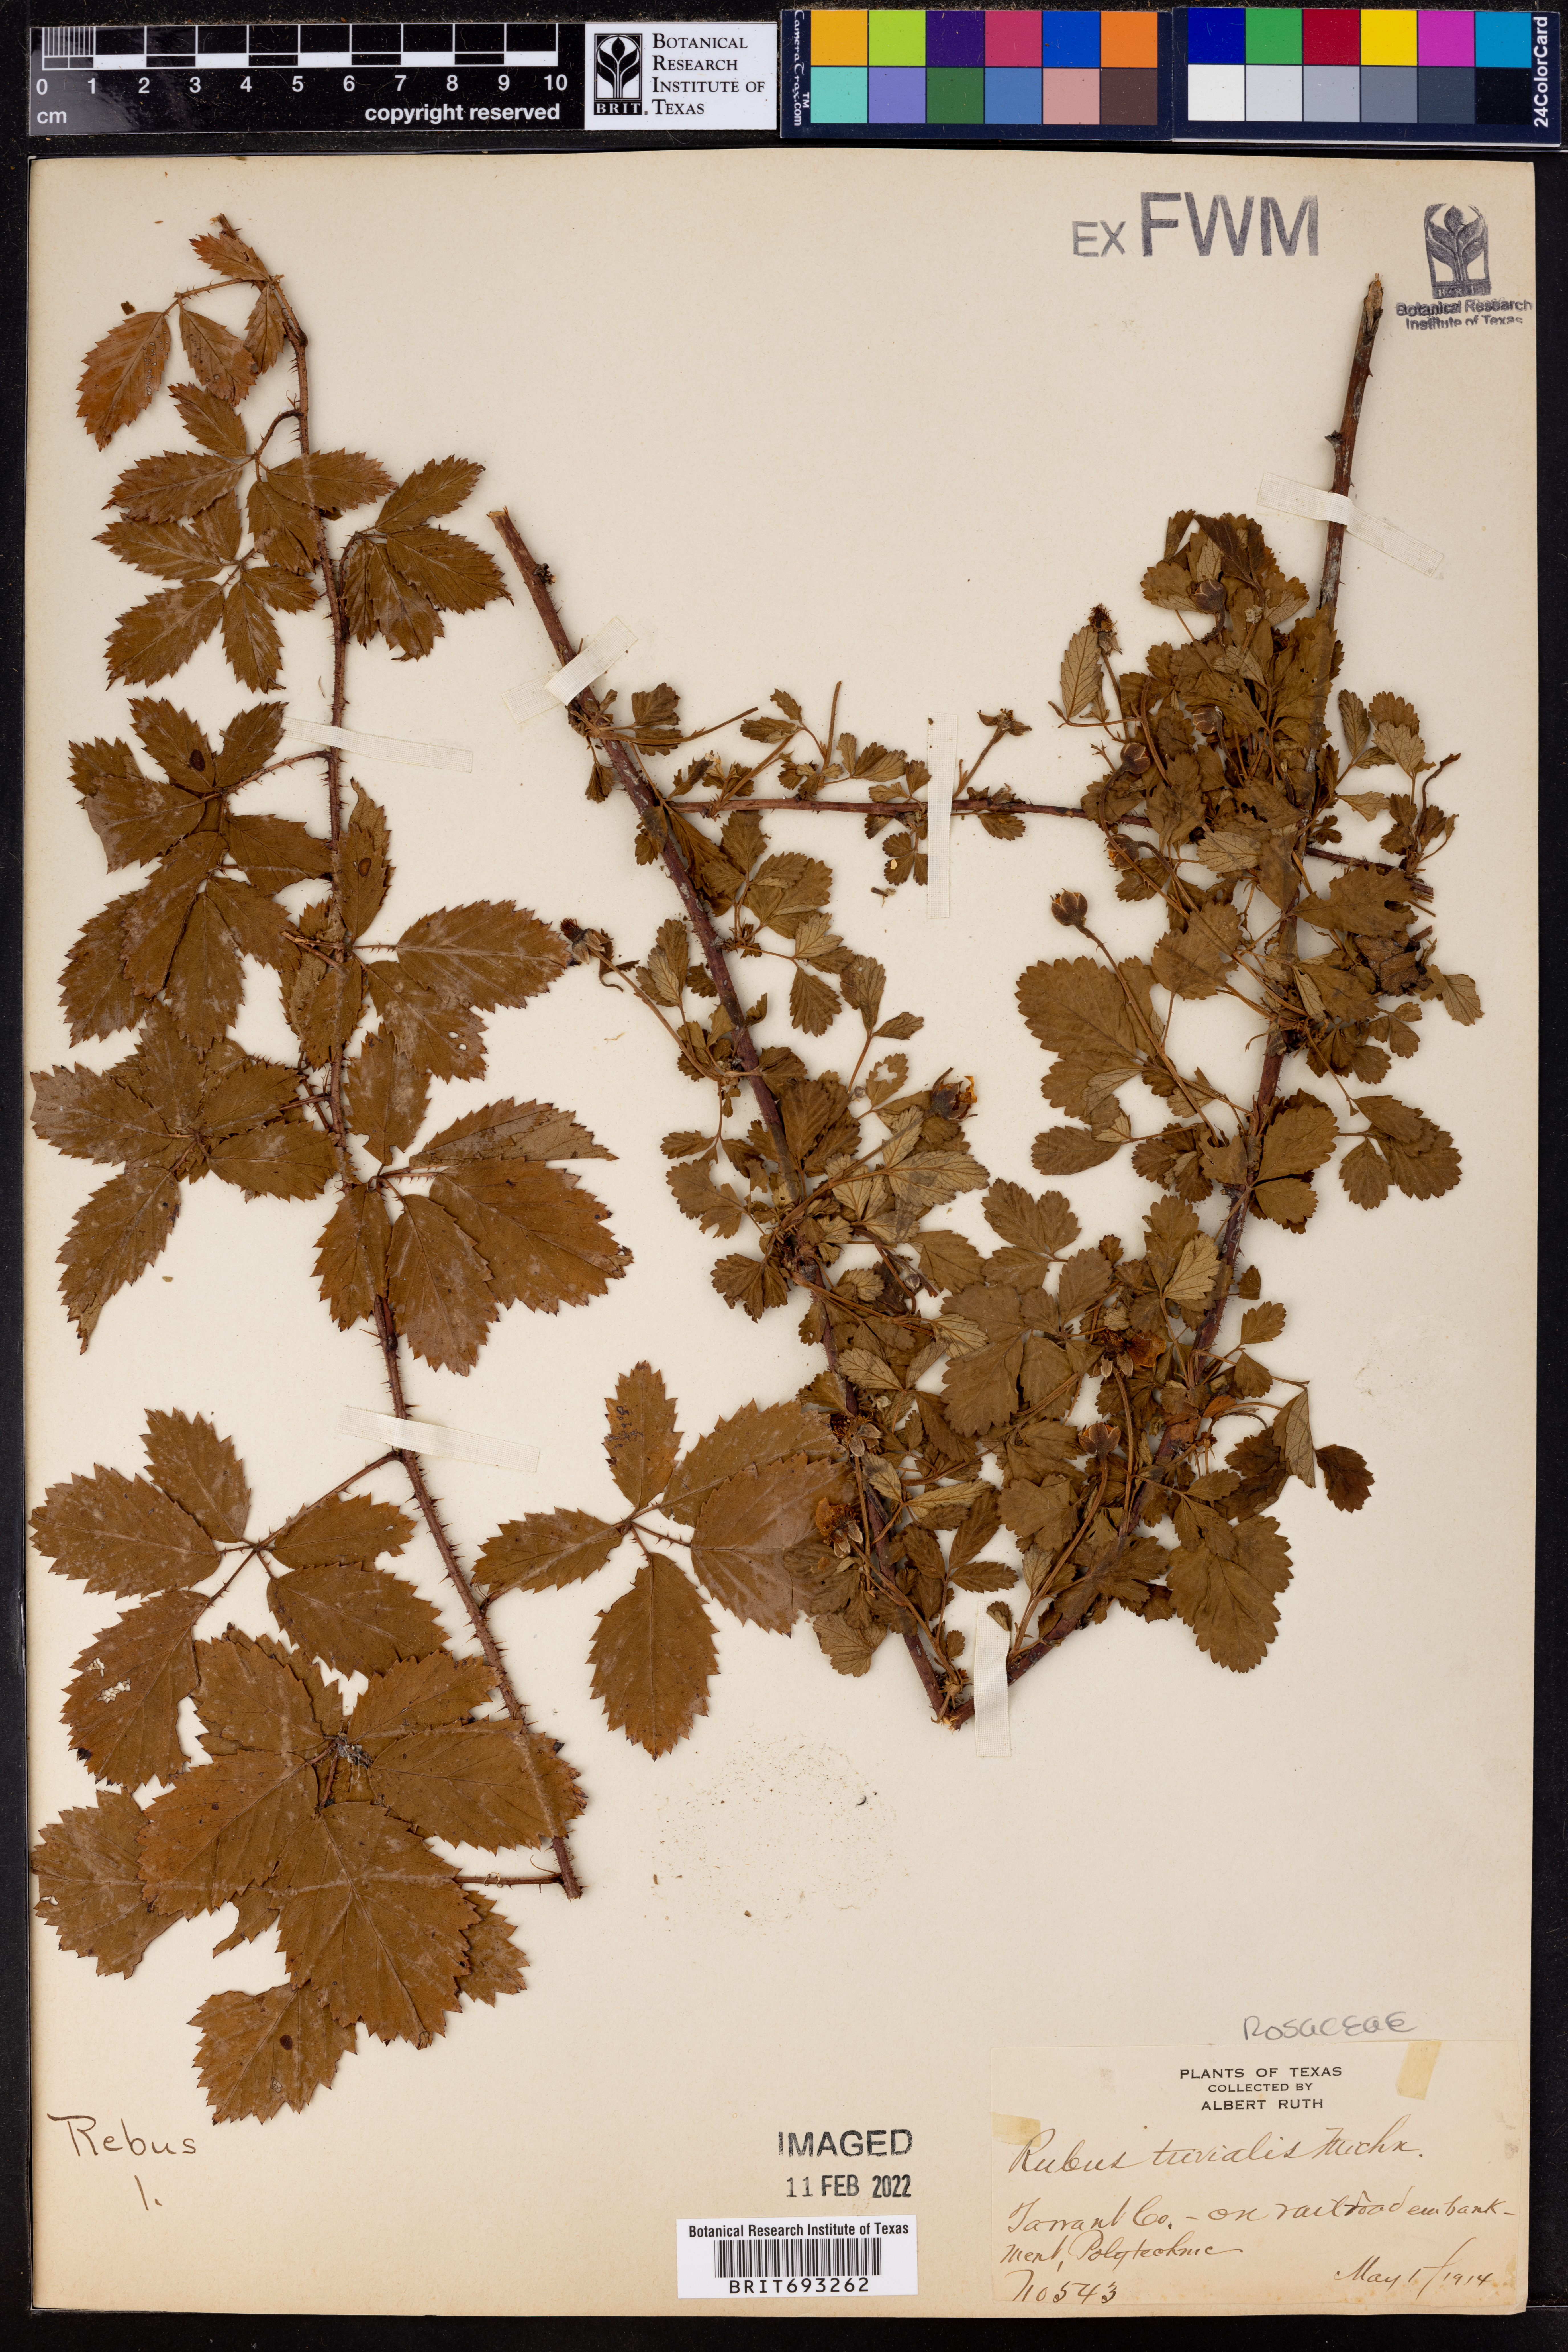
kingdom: Plantae
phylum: Tracheophyta
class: Magnoliopsida
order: Rosales
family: Rosaceae
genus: Rubus
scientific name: Rubus trivialis
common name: Southern dewberry
